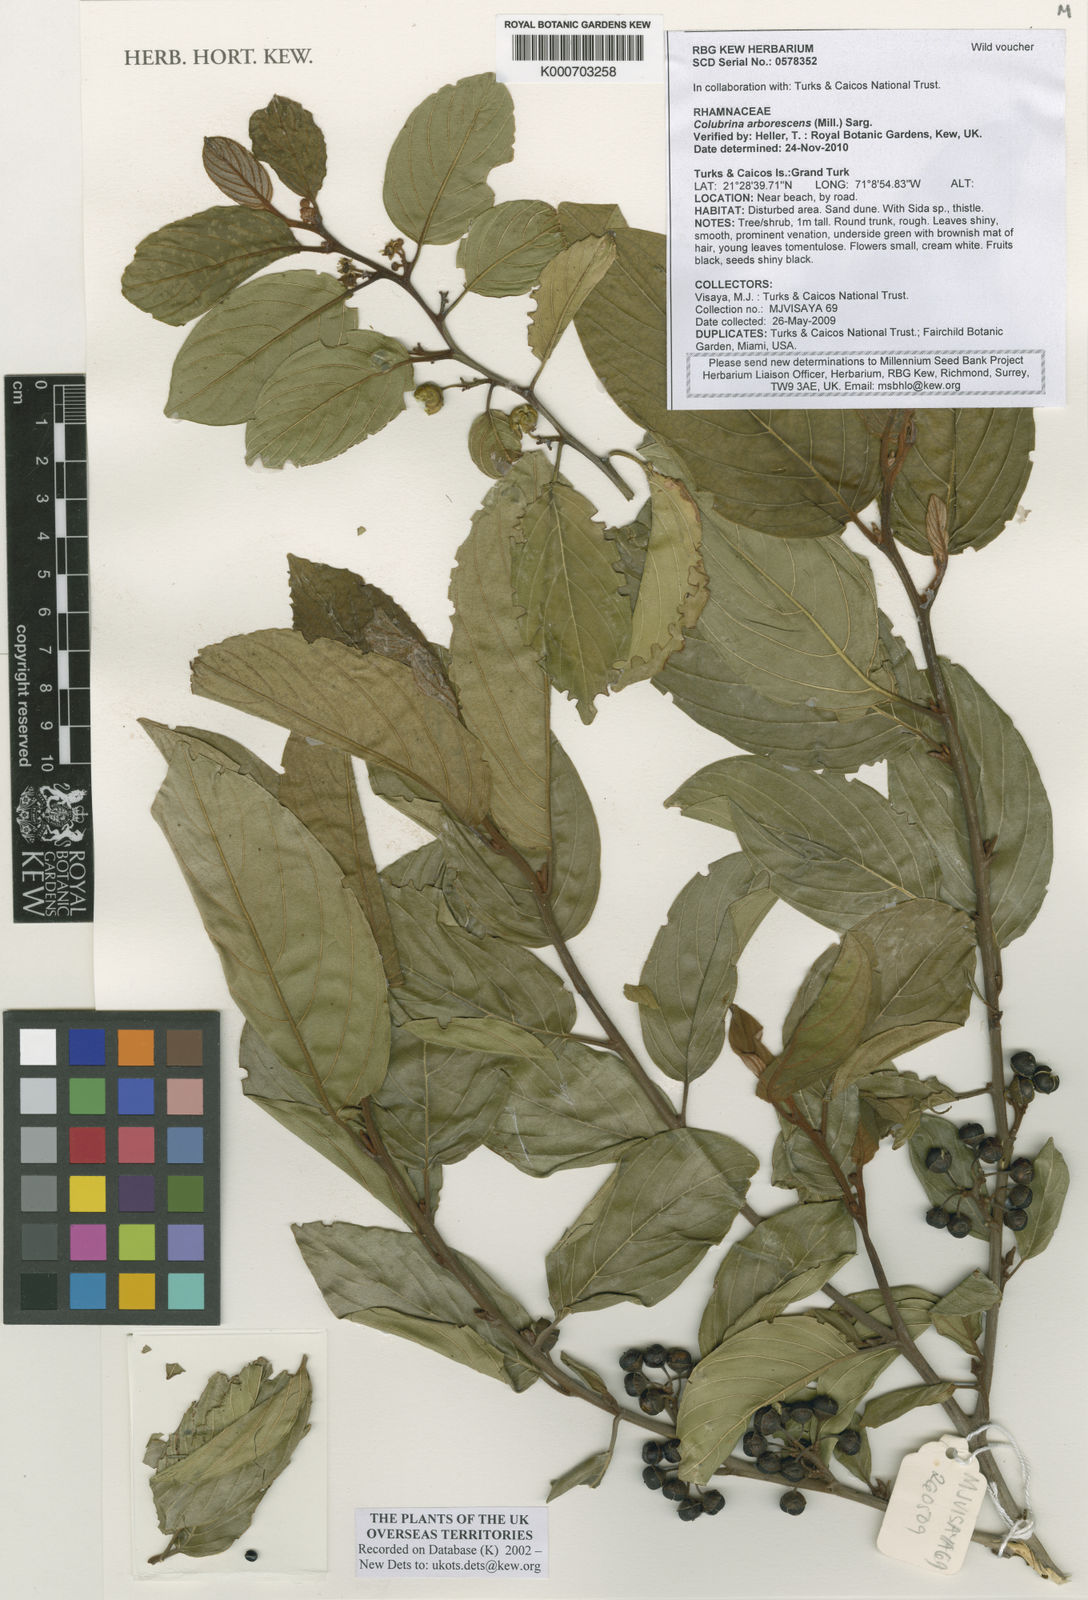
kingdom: Plantae
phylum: Tracheophyta
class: Magnoliopsida
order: Rosales
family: Rhamnaceae
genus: Colubrina
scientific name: Colubrina arborescens
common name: Wild coffee
